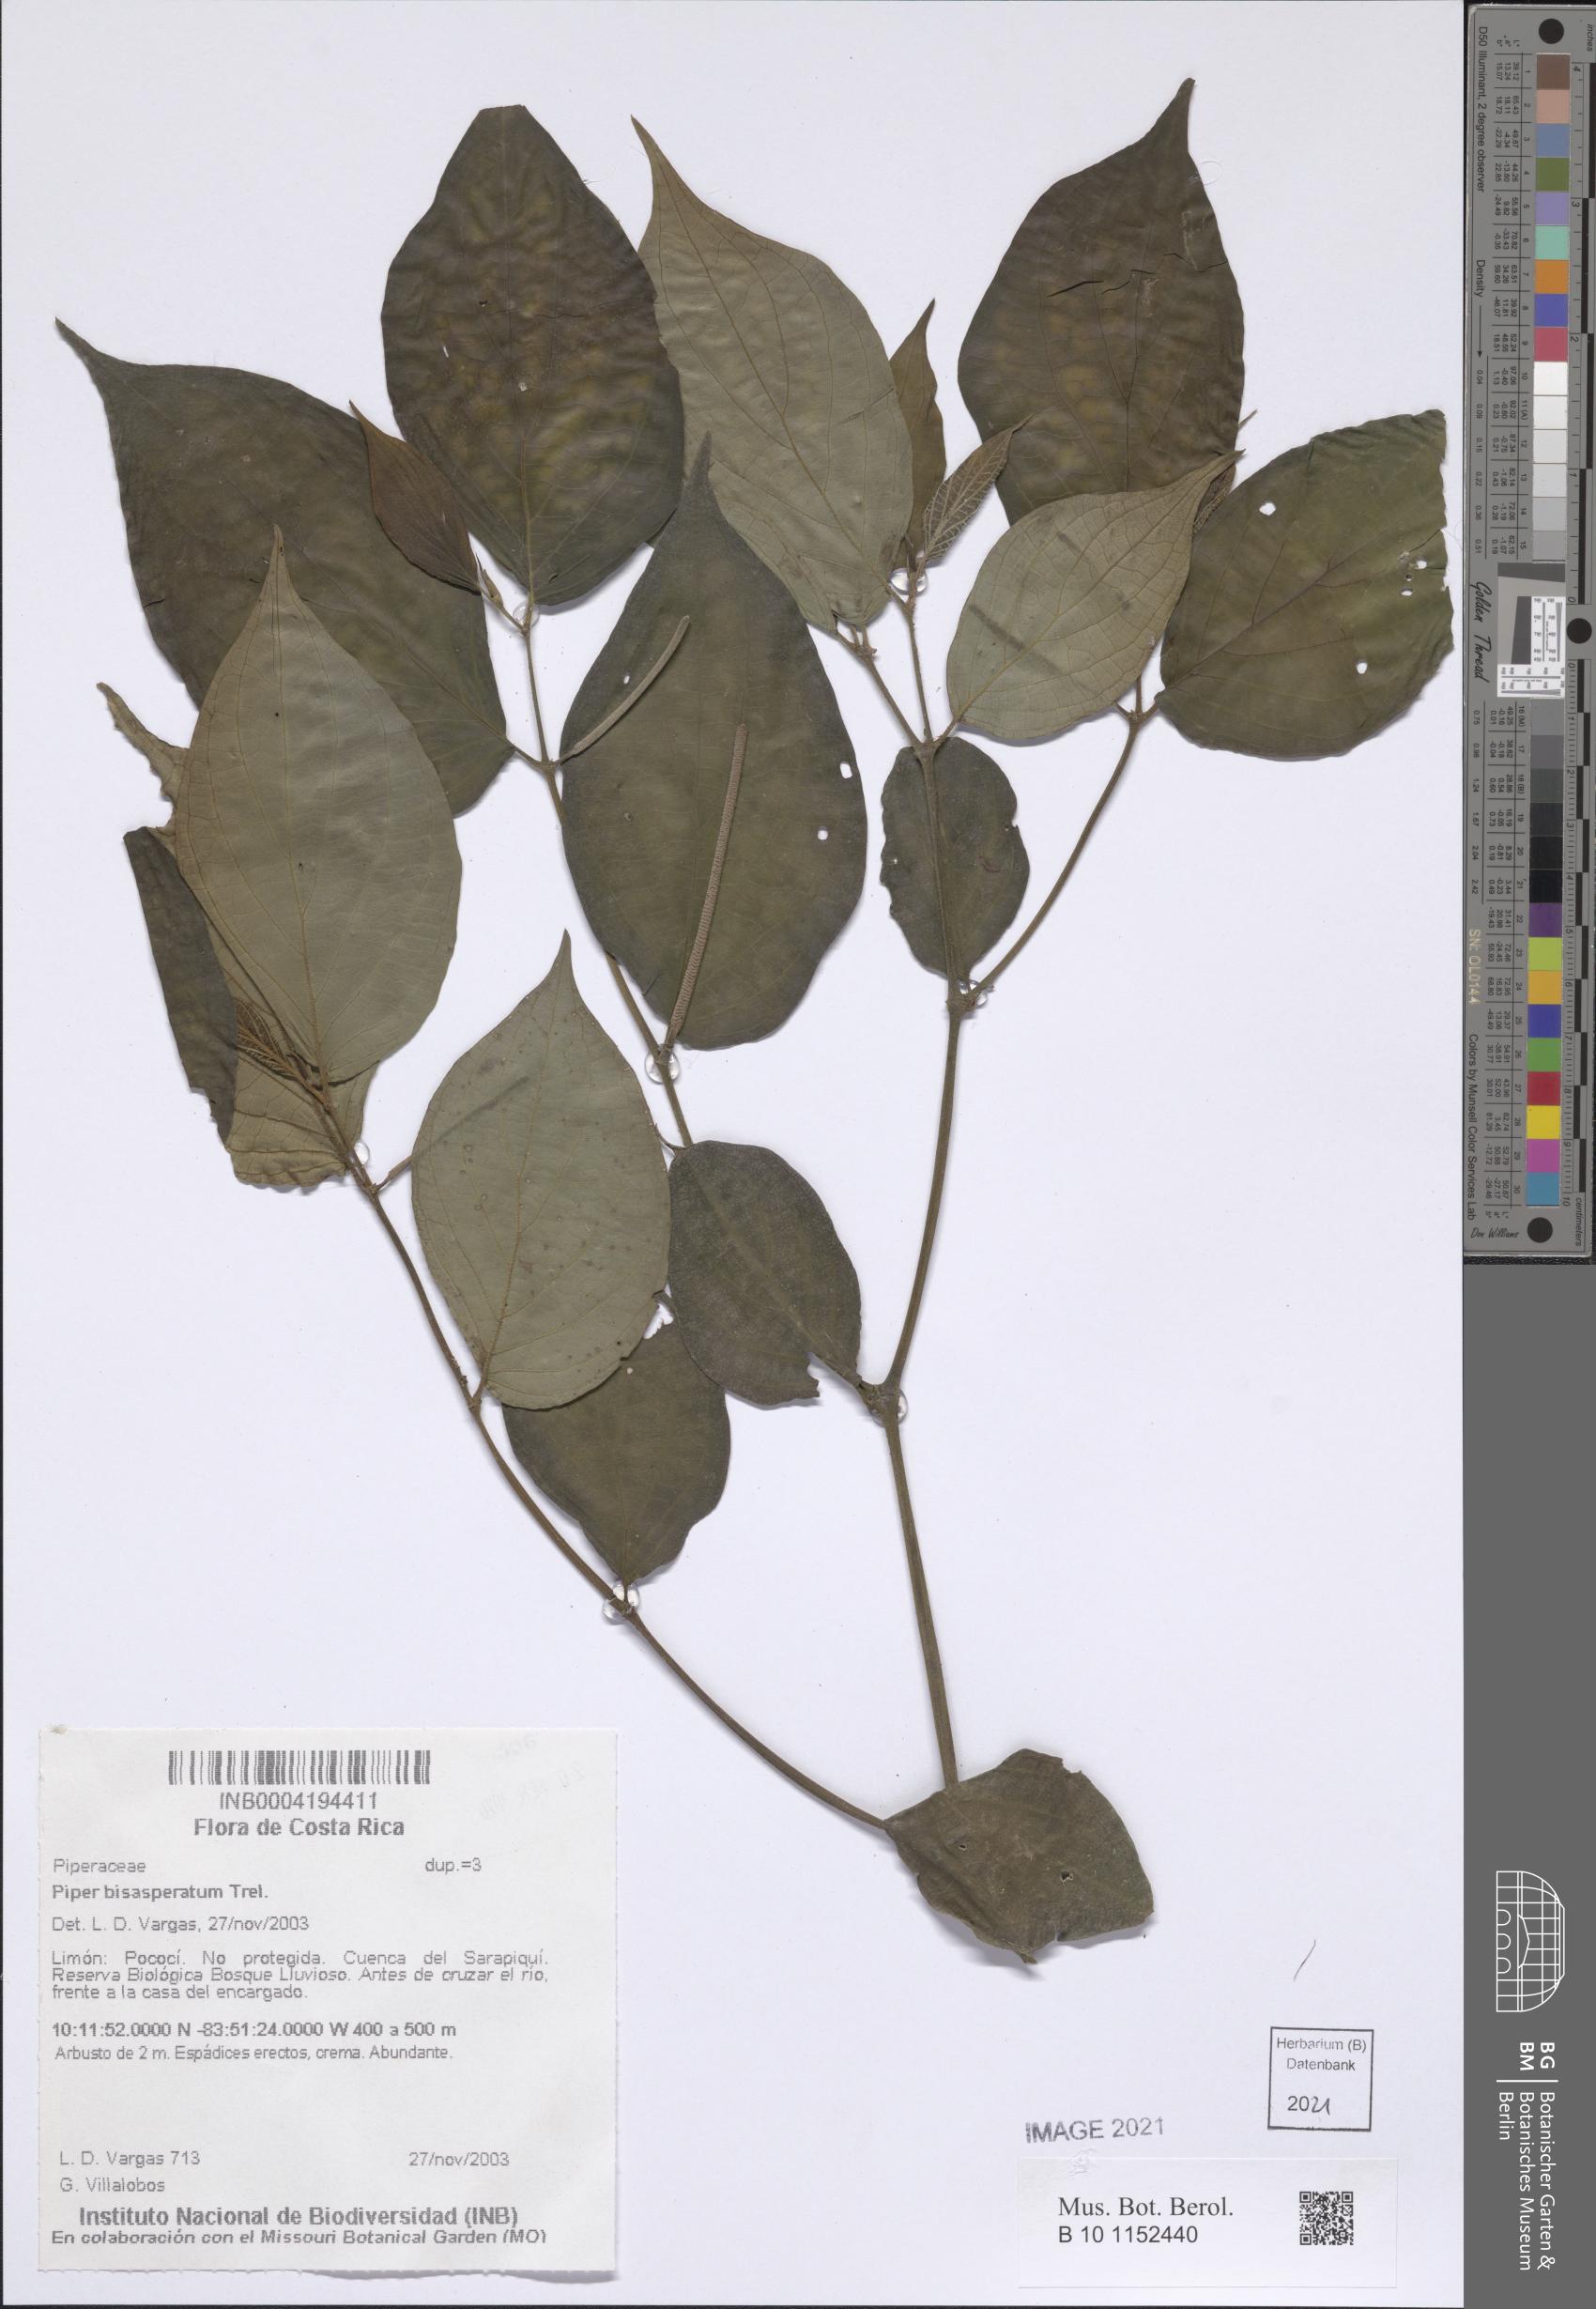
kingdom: Plantae
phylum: Tracheophyta
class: Magnoliopsida
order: Piperales
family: Piperaceae
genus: Piper
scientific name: Piper bisasperatum
